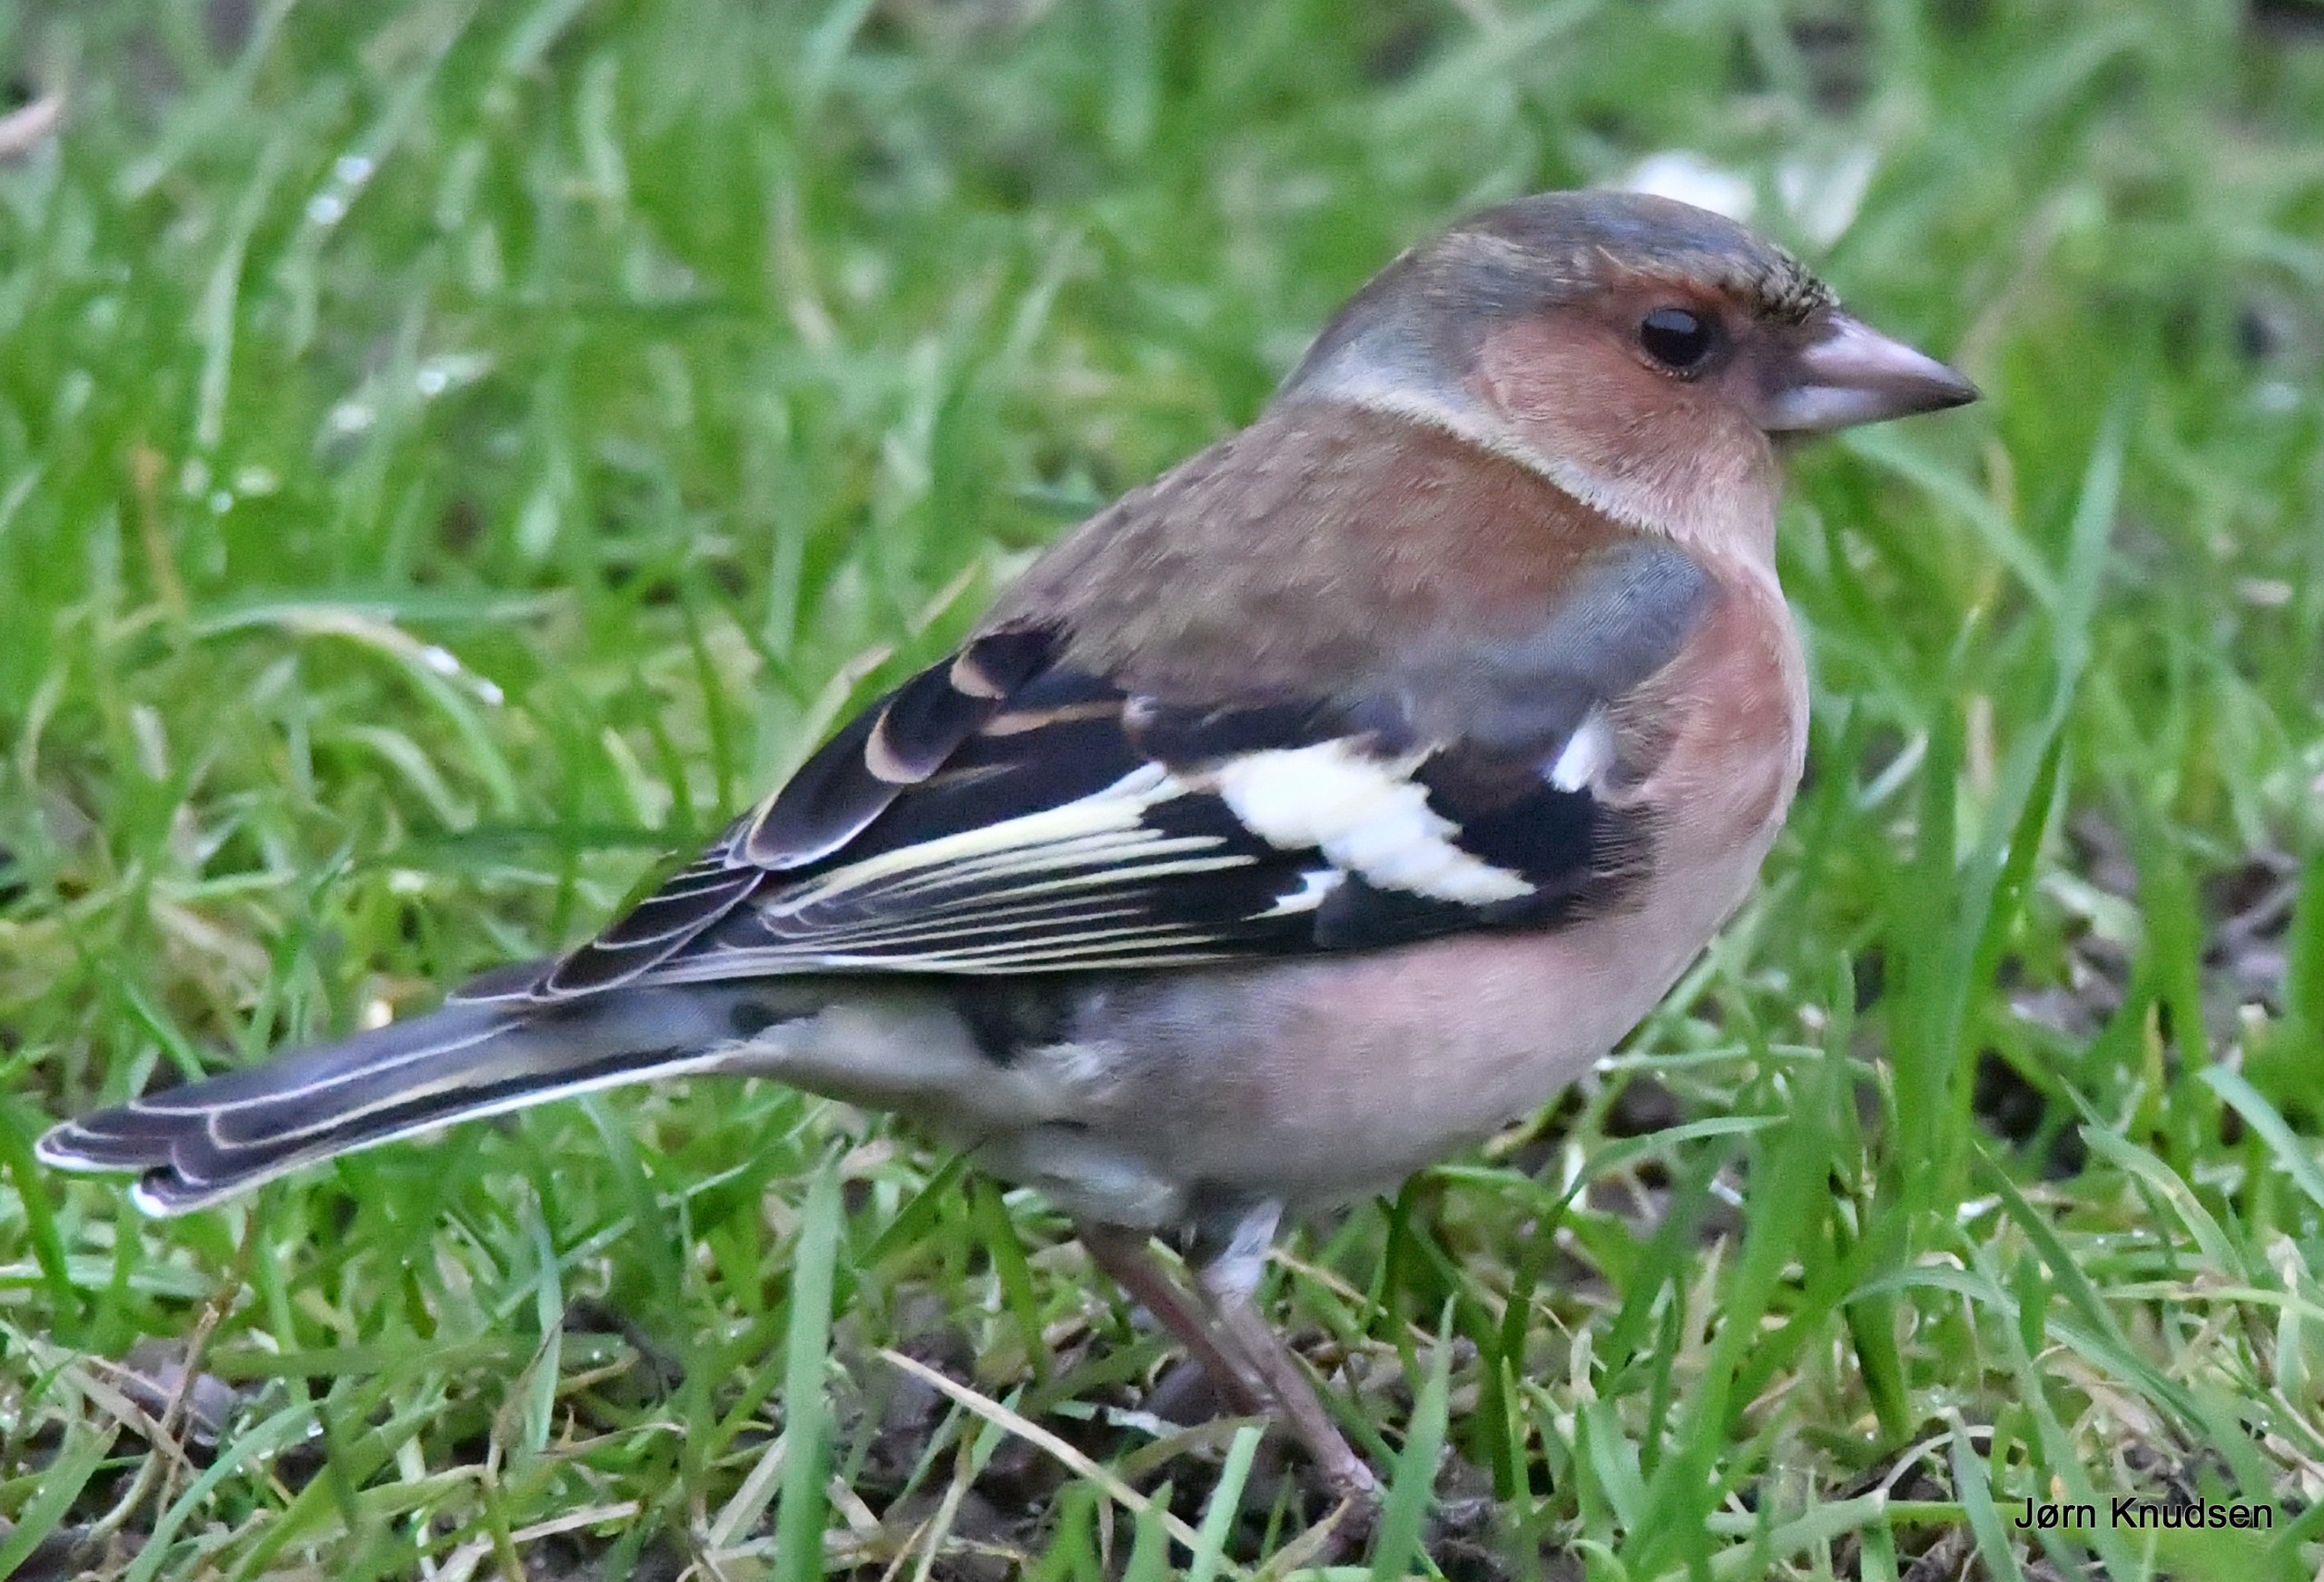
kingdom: Animalia
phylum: Chordata
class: Aves
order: Passeriformes
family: Fringillidae
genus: Fringilla
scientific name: Fringilla coelebs
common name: Bogfinke
